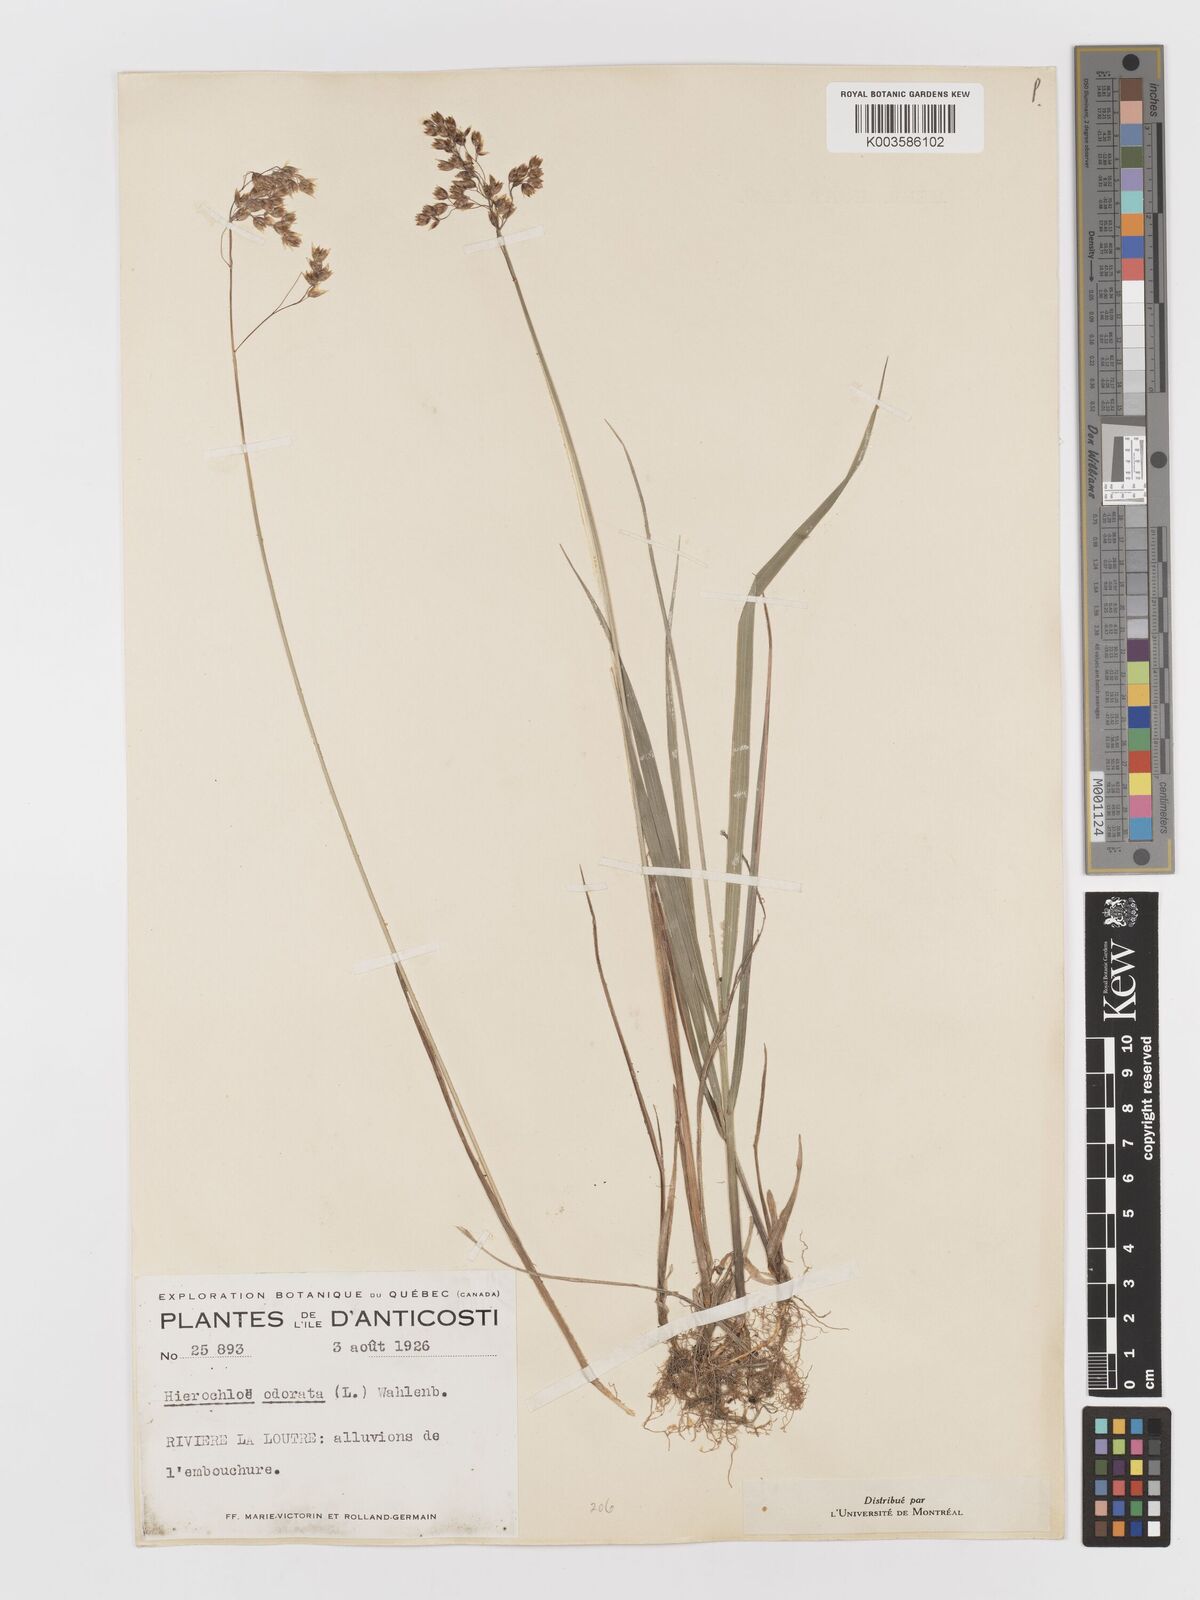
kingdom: Plantae
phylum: Tracheophyta
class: Liliopsida
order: Poales
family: Poaceae
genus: Anthoxanthum
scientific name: Anthoxanthum nitens
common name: Holy grass
